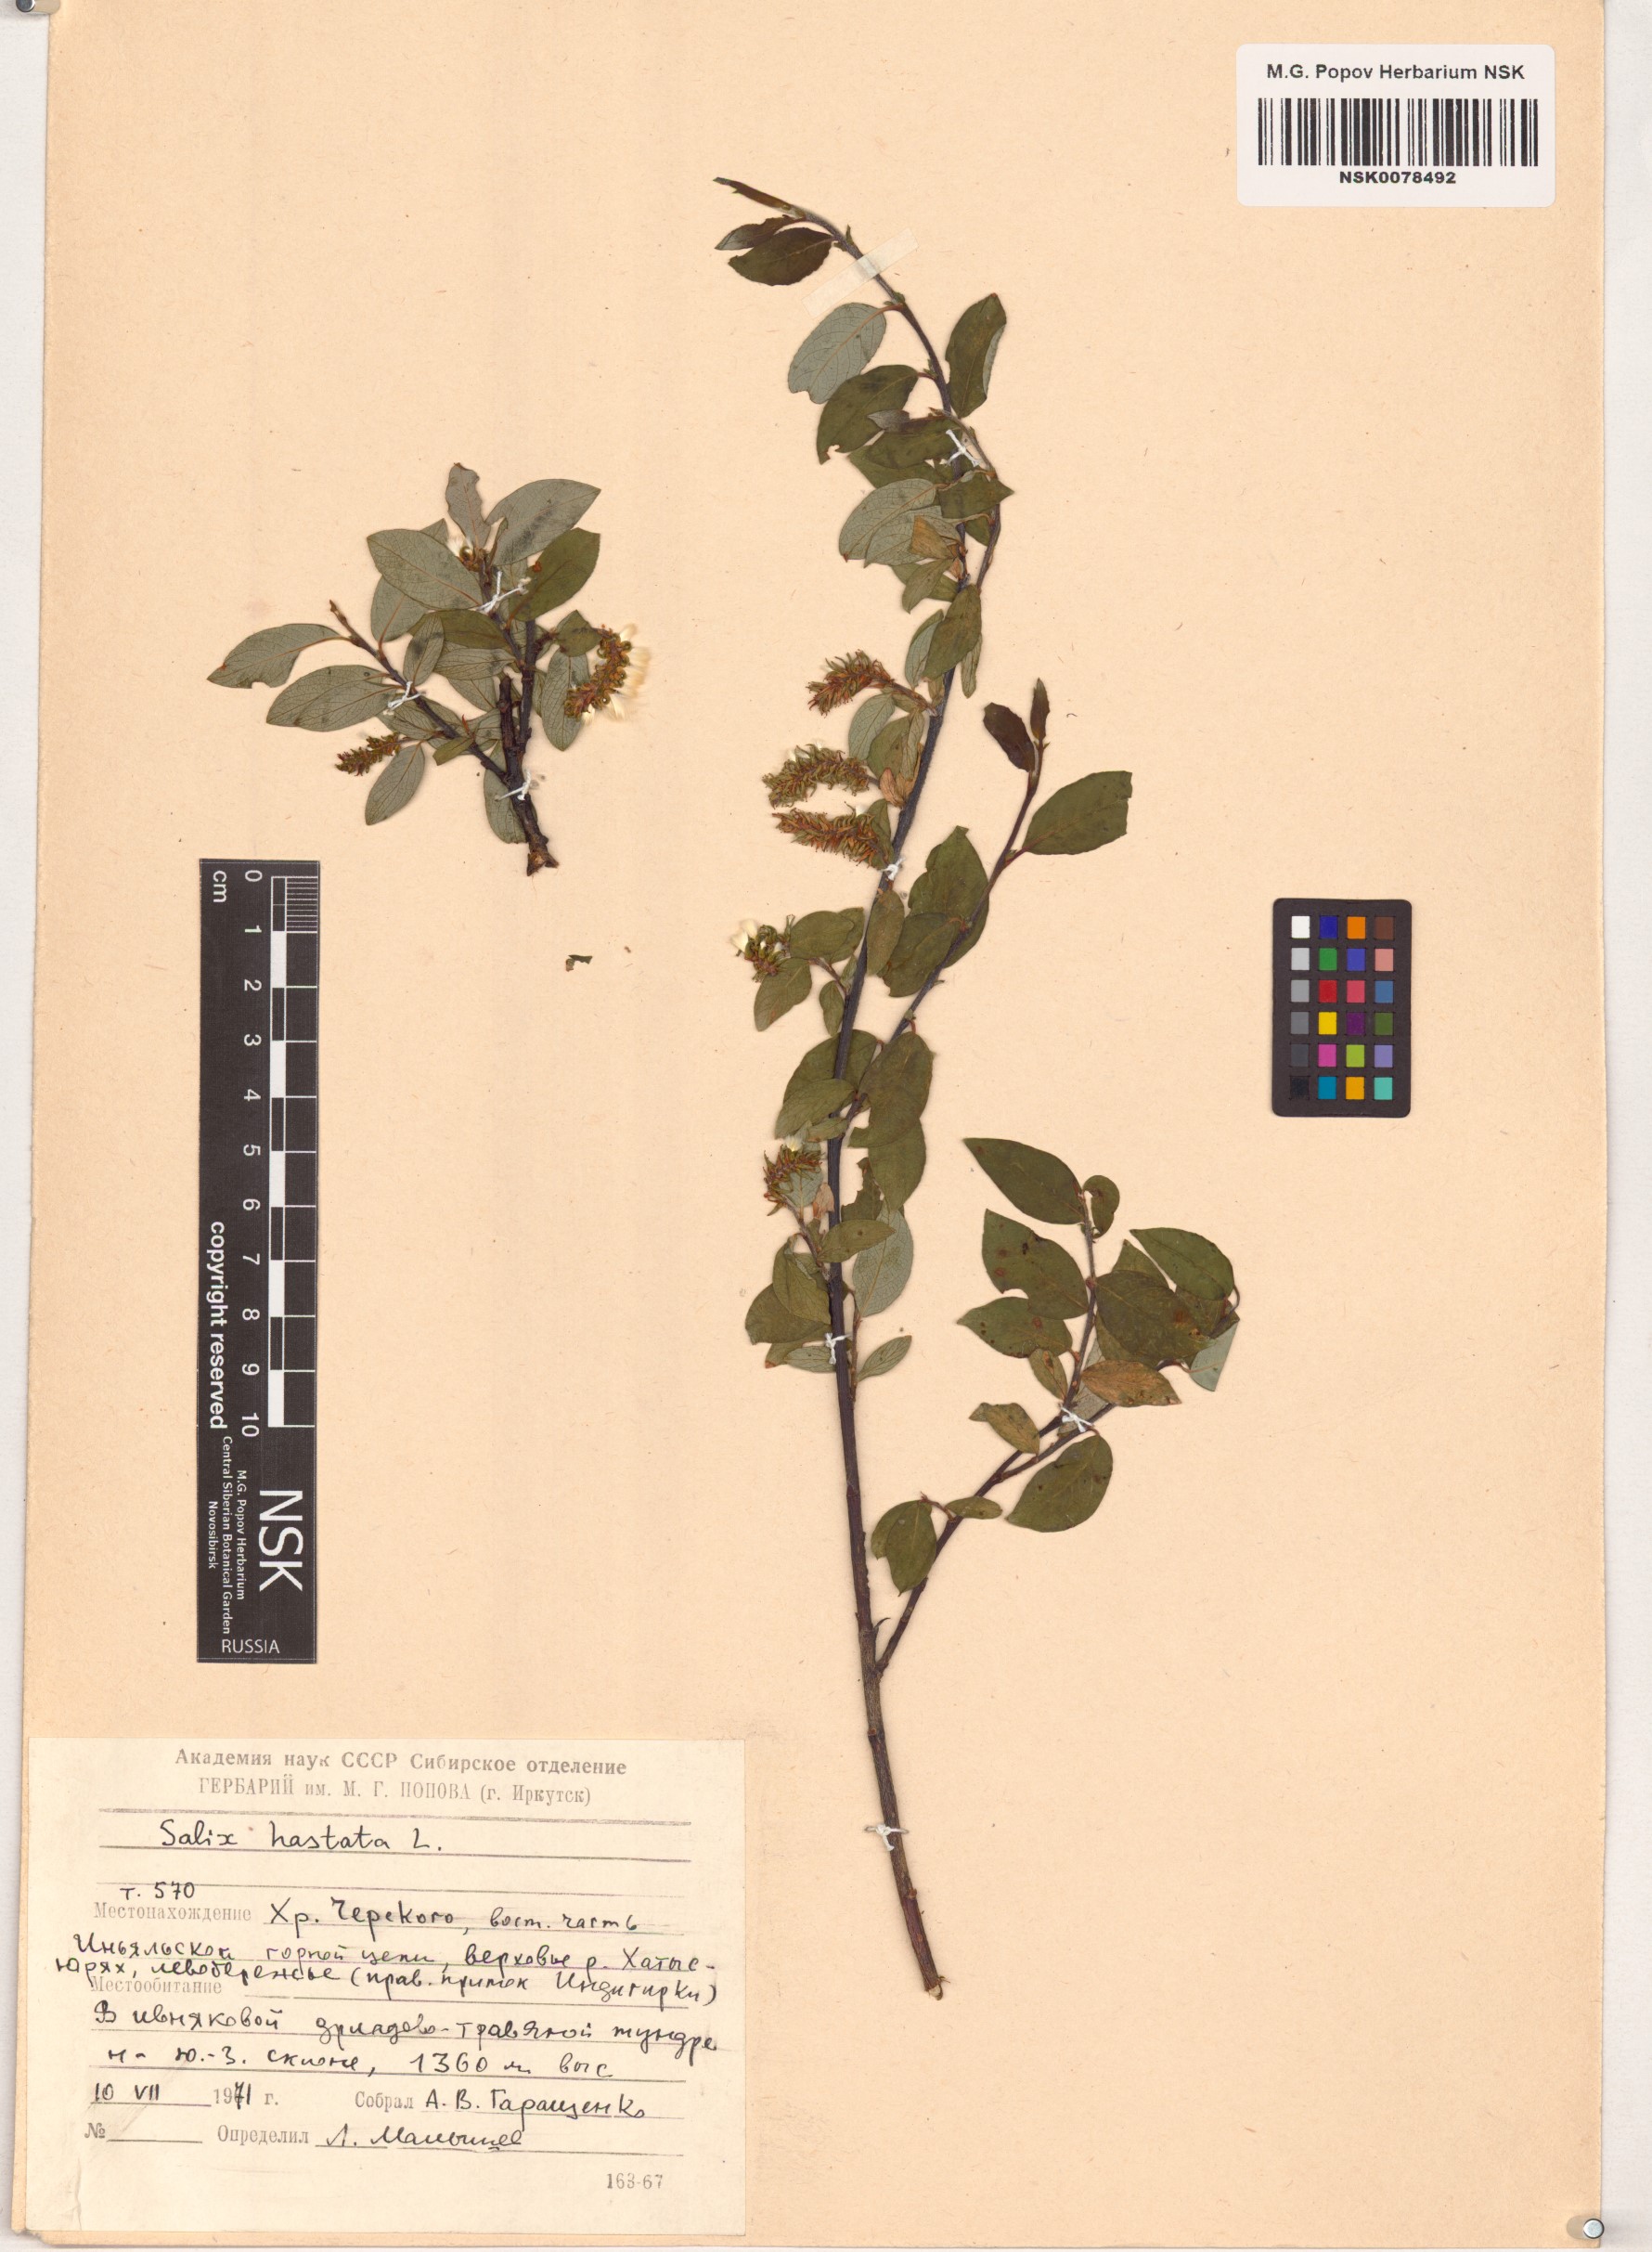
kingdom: Plantae
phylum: Tracheophyta
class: Magnoliopsida
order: Malpighiales
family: Salicaceae
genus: Salix
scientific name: Salix hastata
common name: Halberd willow
